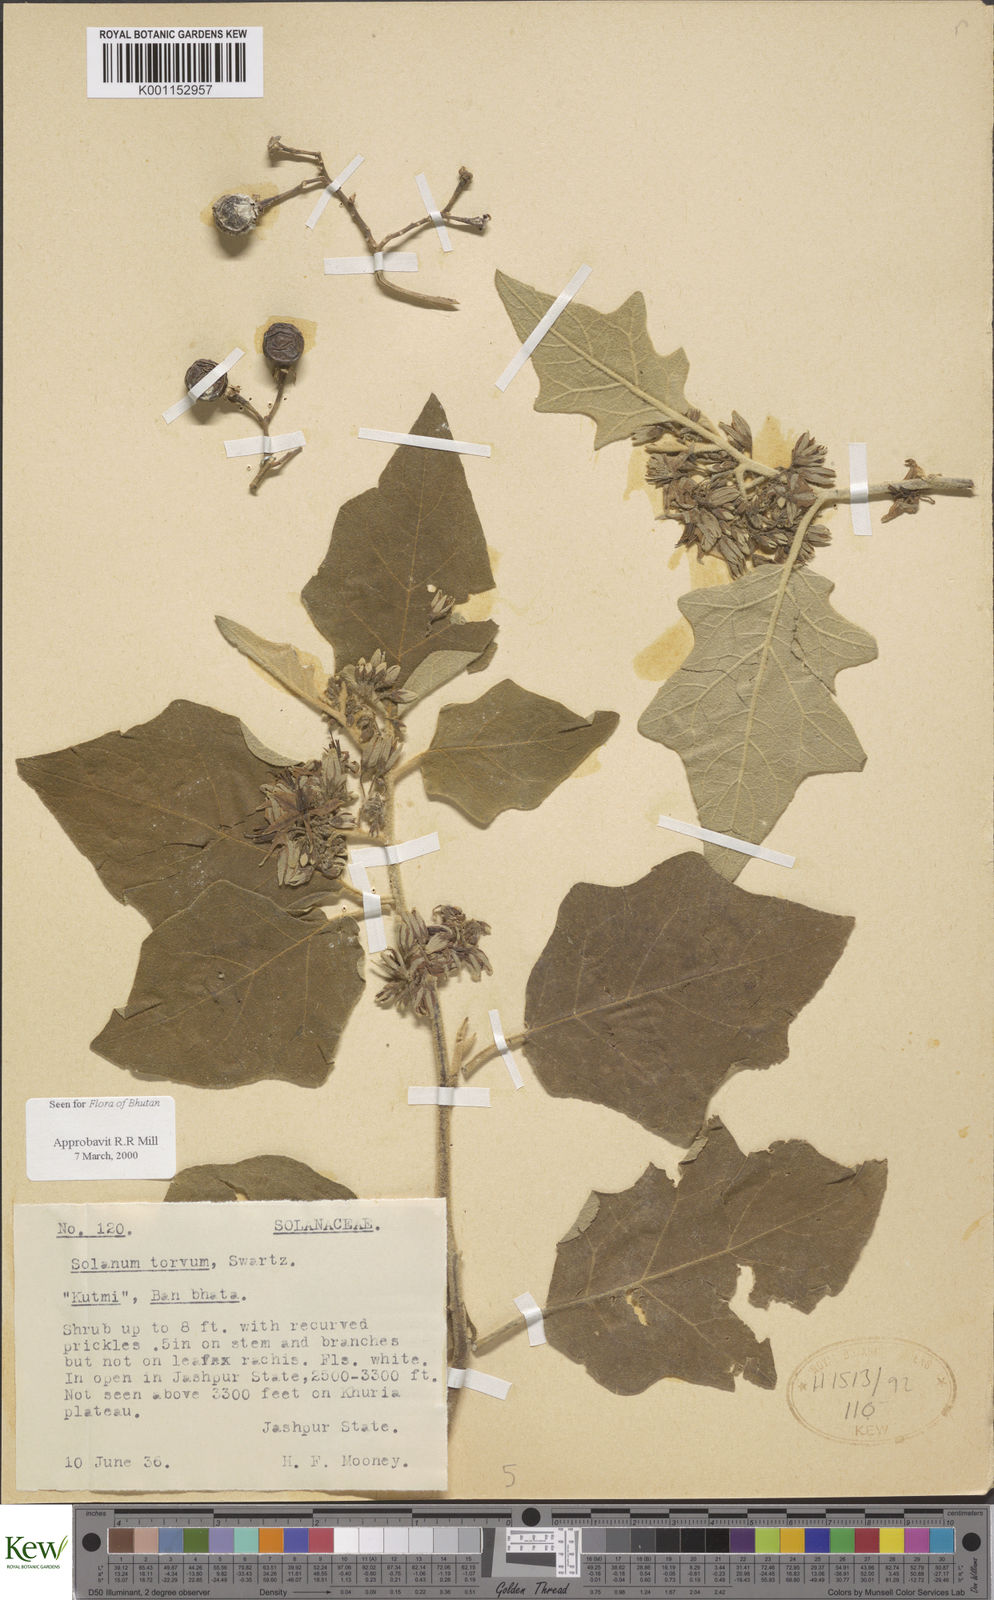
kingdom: Plantae
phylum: Tracheophyta
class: Magnoliopsida
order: Solanales
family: Solanaceae
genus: Solanum
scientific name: Solanum torvum
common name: Turkey berry
